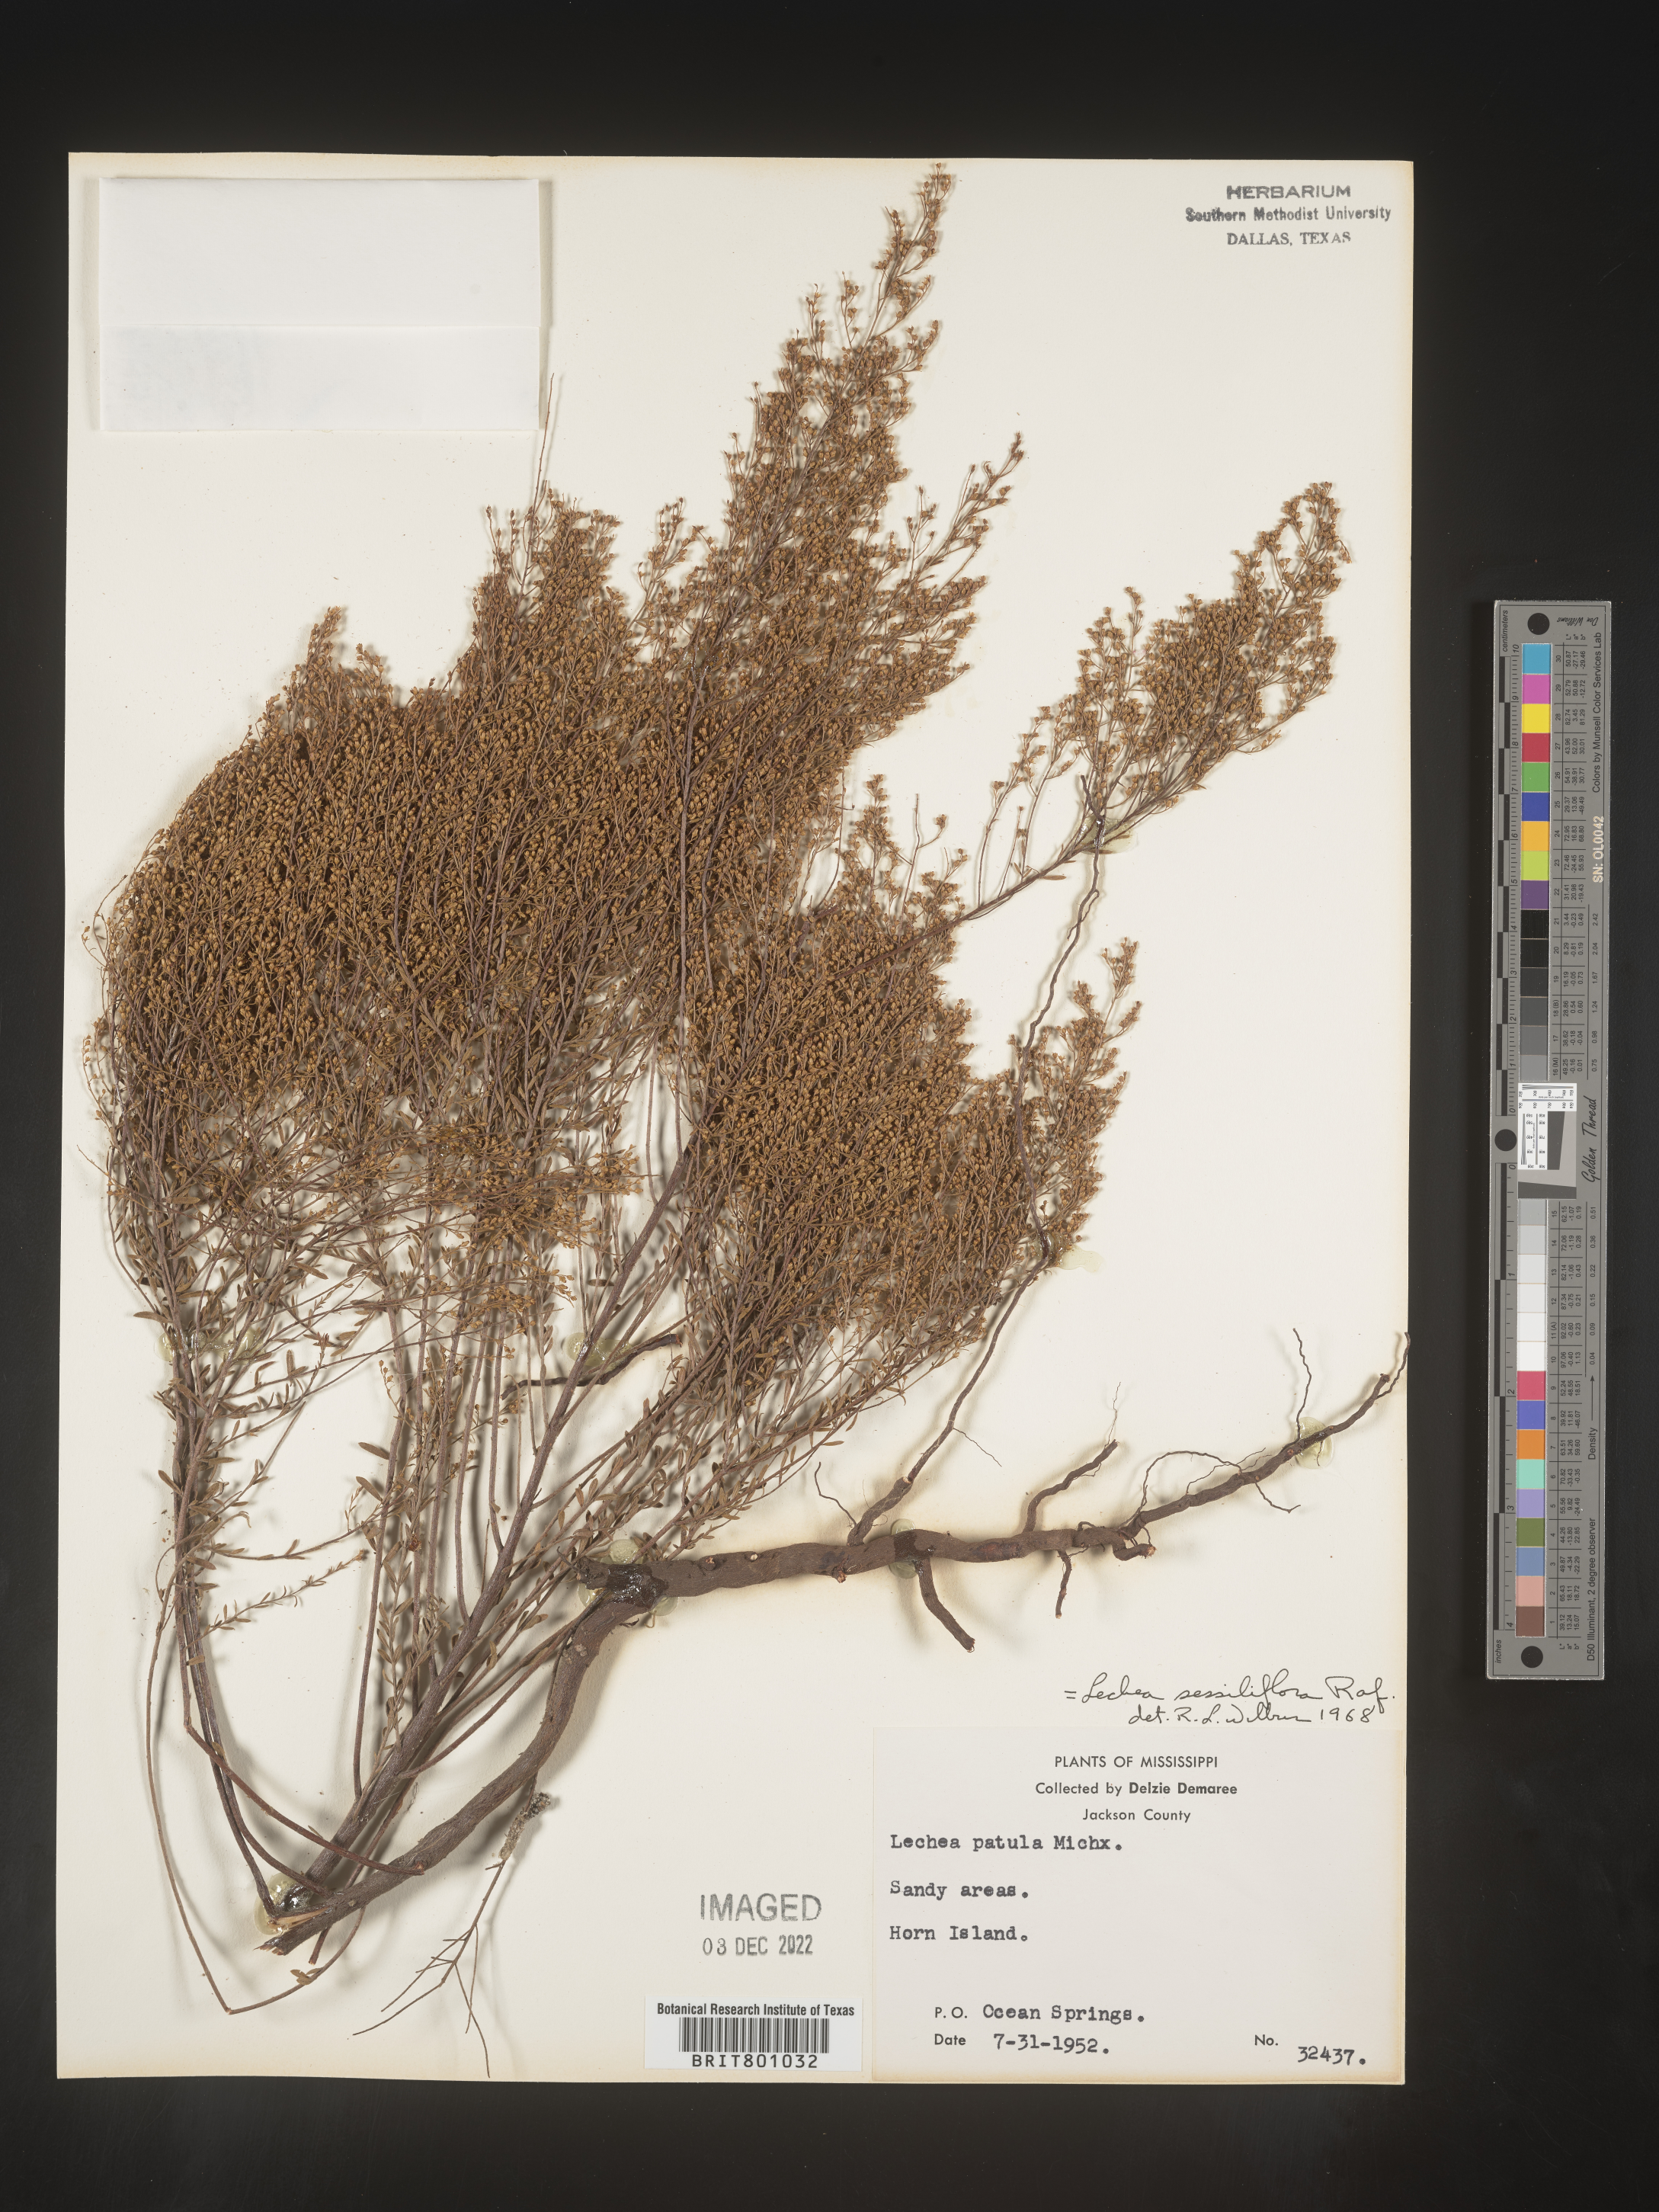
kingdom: Plantae
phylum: Tracheophyta
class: Magnoliopsida
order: Malvales
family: Cistaceae
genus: Lechea
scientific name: Lechea
